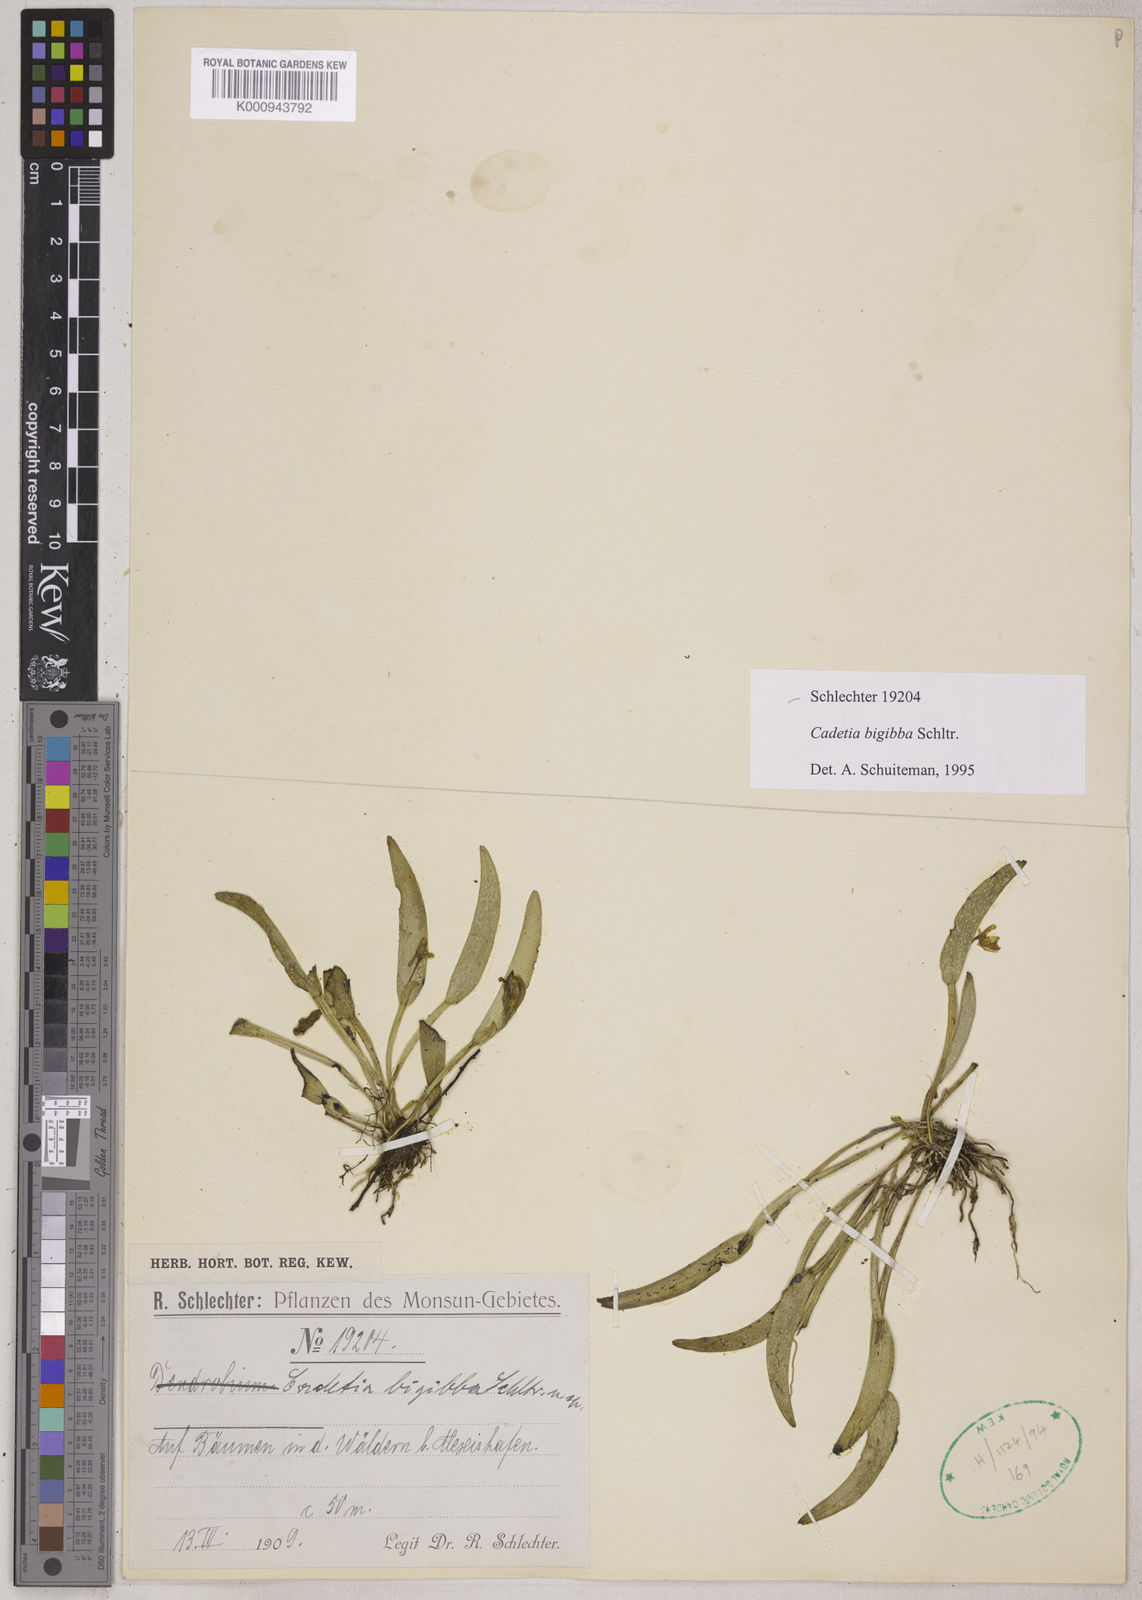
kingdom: Plantae
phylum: Tracheophyta
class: Liliopsida
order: Asparagales
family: Orchidaceae
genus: Dendrobium
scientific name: Dendrobium rumphiae
